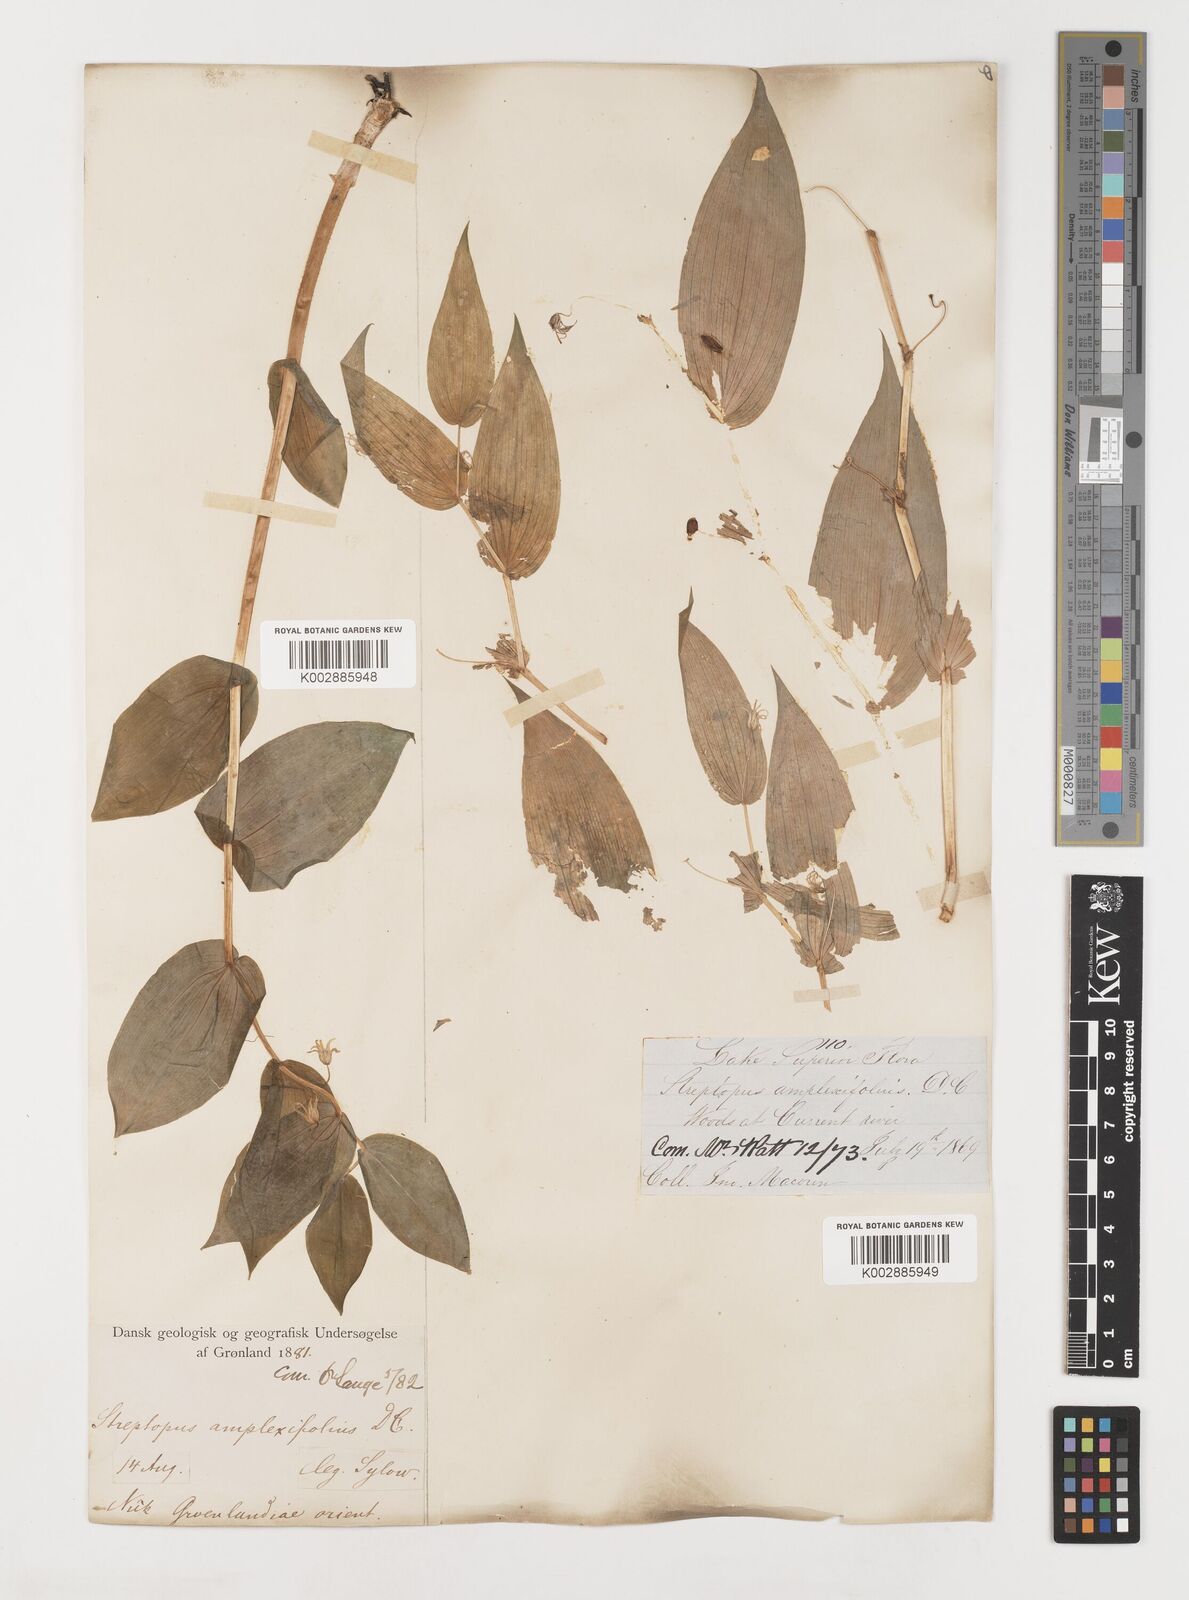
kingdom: Plantae
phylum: Tracheophyta
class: Liliopsida
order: Liliales
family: Liliaceae
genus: Streptopus
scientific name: Streptopus amplexifolius
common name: Clasp twisted stalk
